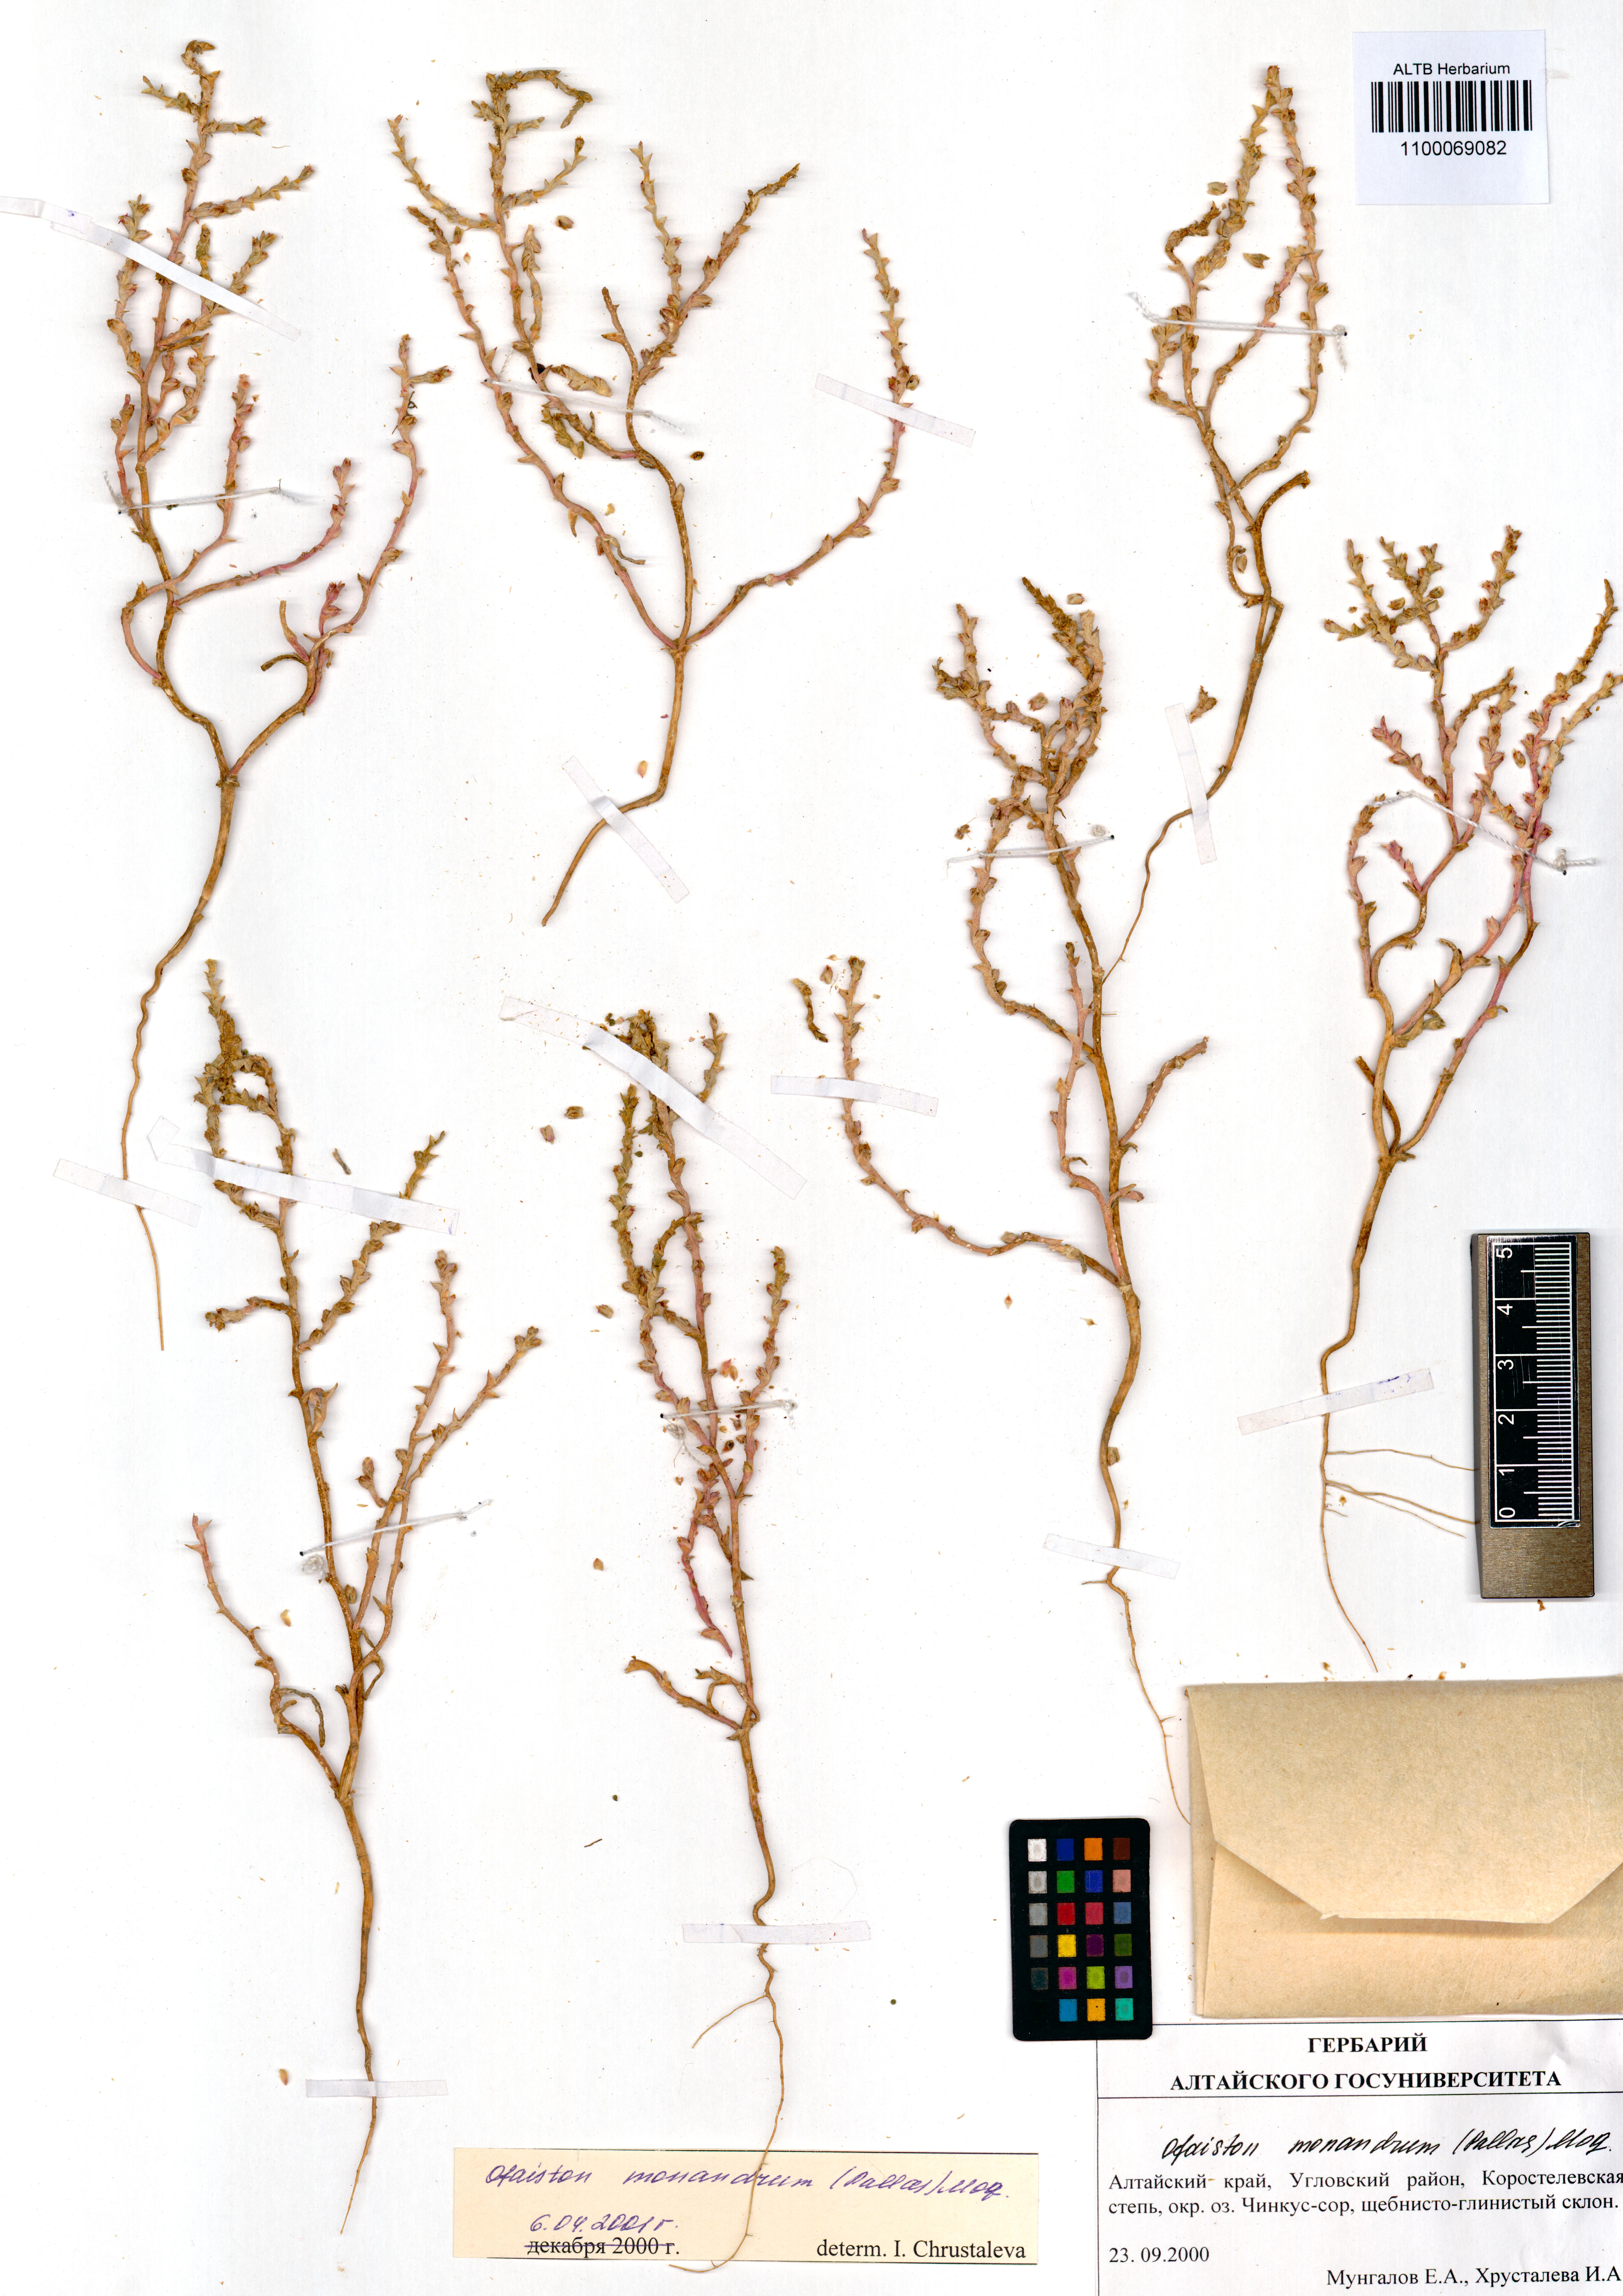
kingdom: Plantae
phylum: Tracheophyta
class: Magnoliopsida
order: Caryophyllales
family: Amaranthaceae
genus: Ofaiston
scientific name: Ofaiston monandrum
